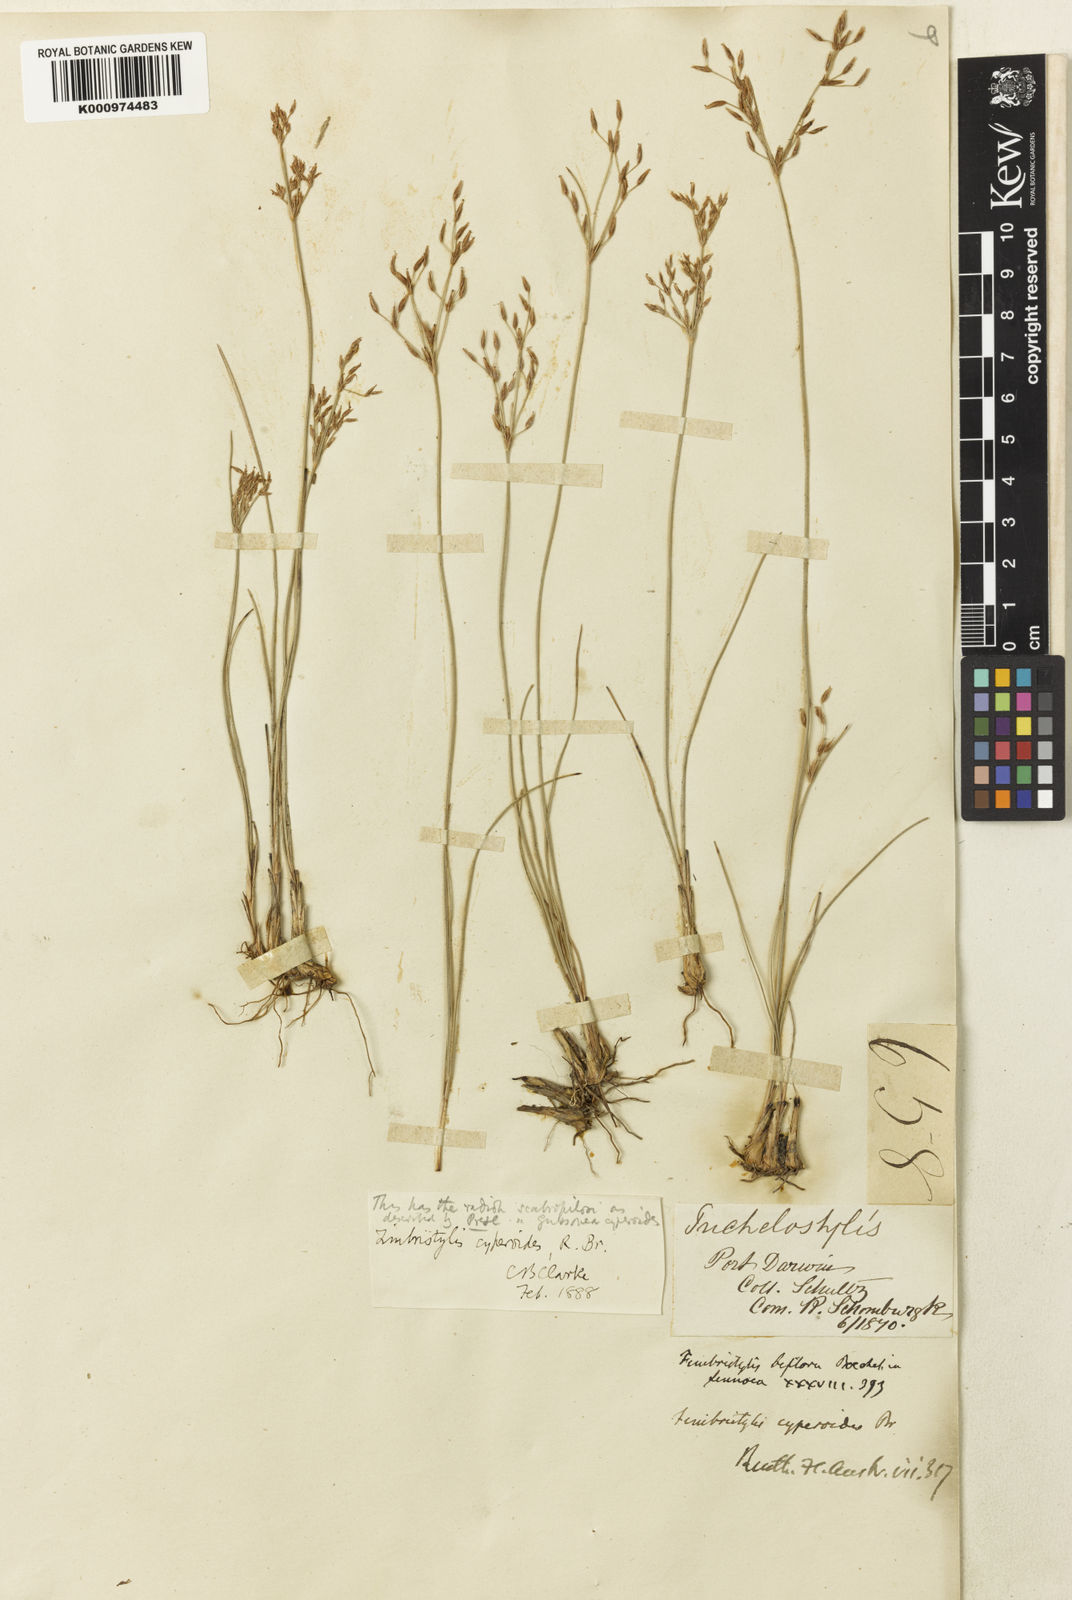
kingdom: Plantae
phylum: Tracheophyta
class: Liliopsida
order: Poales
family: Cyperaceae
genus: Fimbristylis
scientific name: Fimbristylis cinnamometorum
